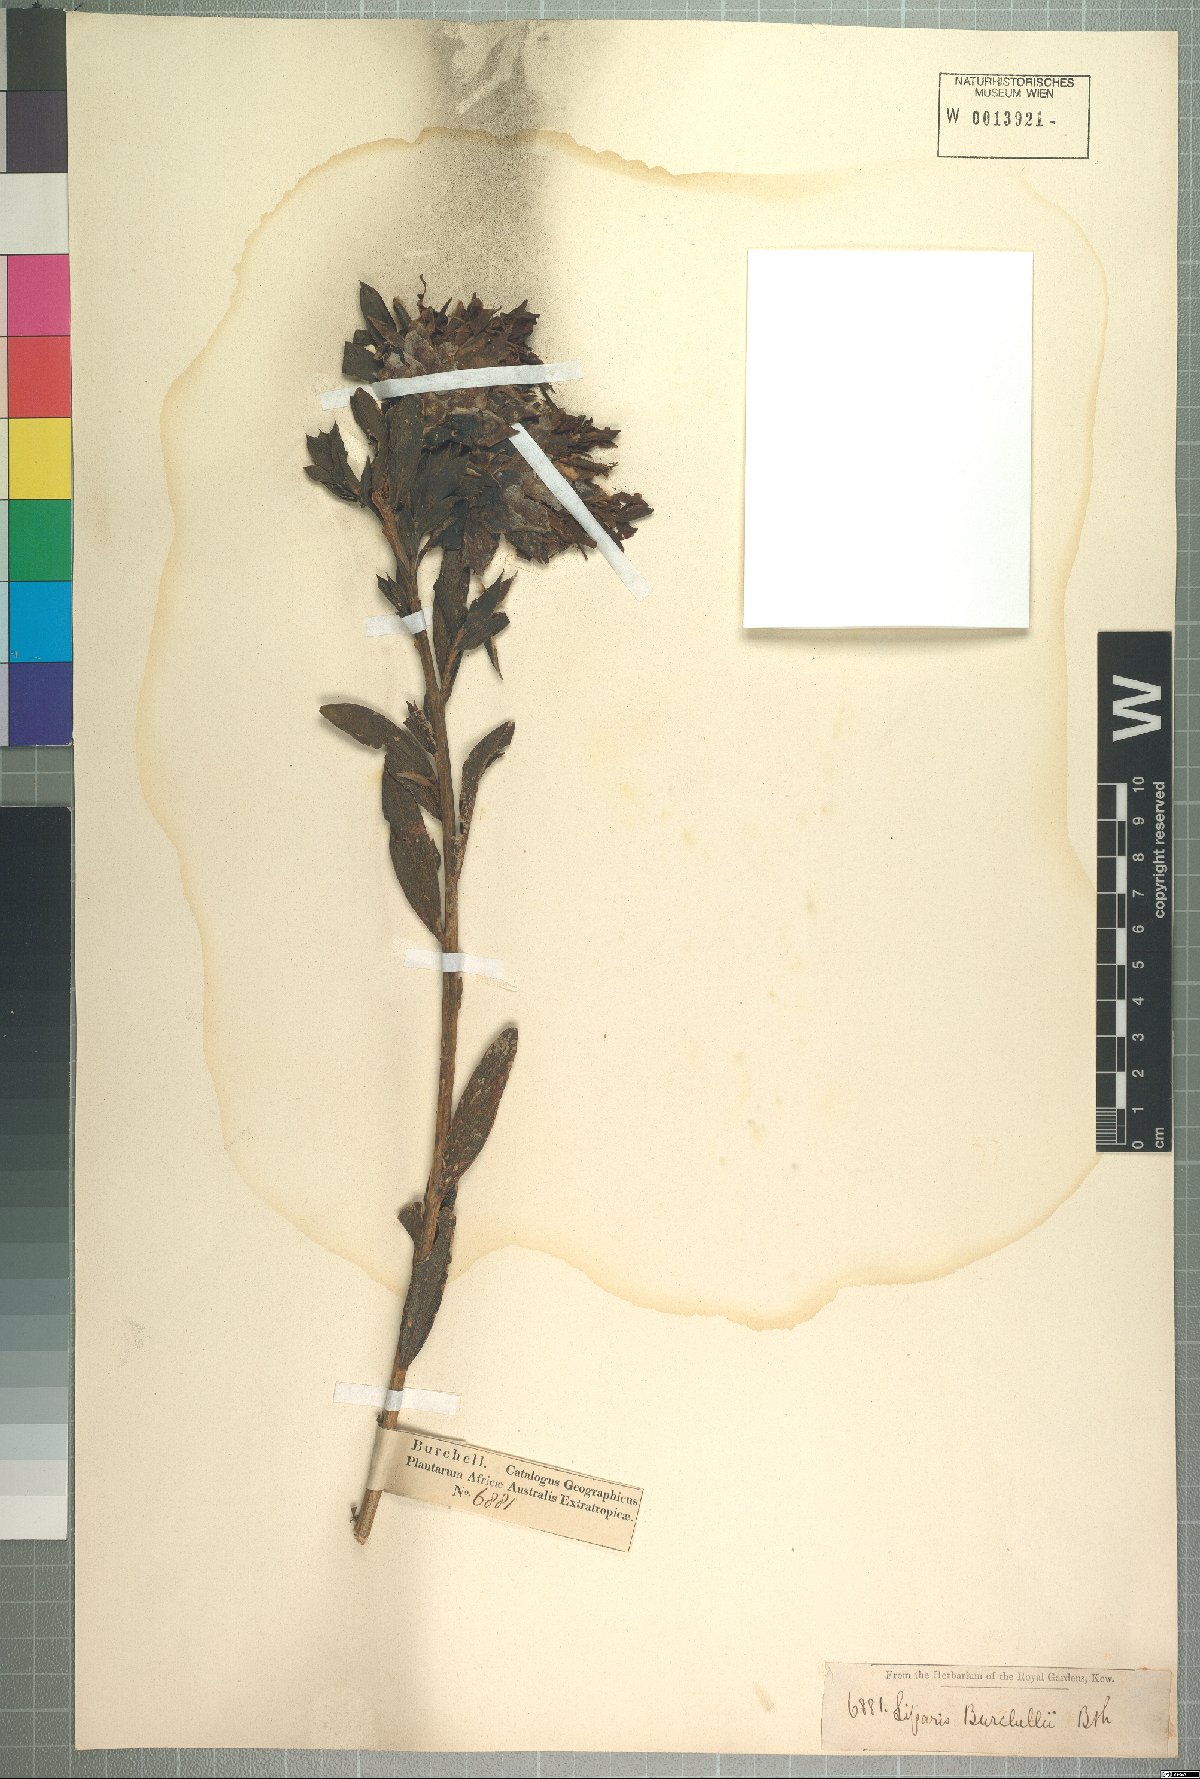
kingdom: Plantae
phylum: Tracheophyta
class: Magnoliopsida
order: Fabales
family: Fabaceae
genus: Liparia
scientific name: Liparia splendens
